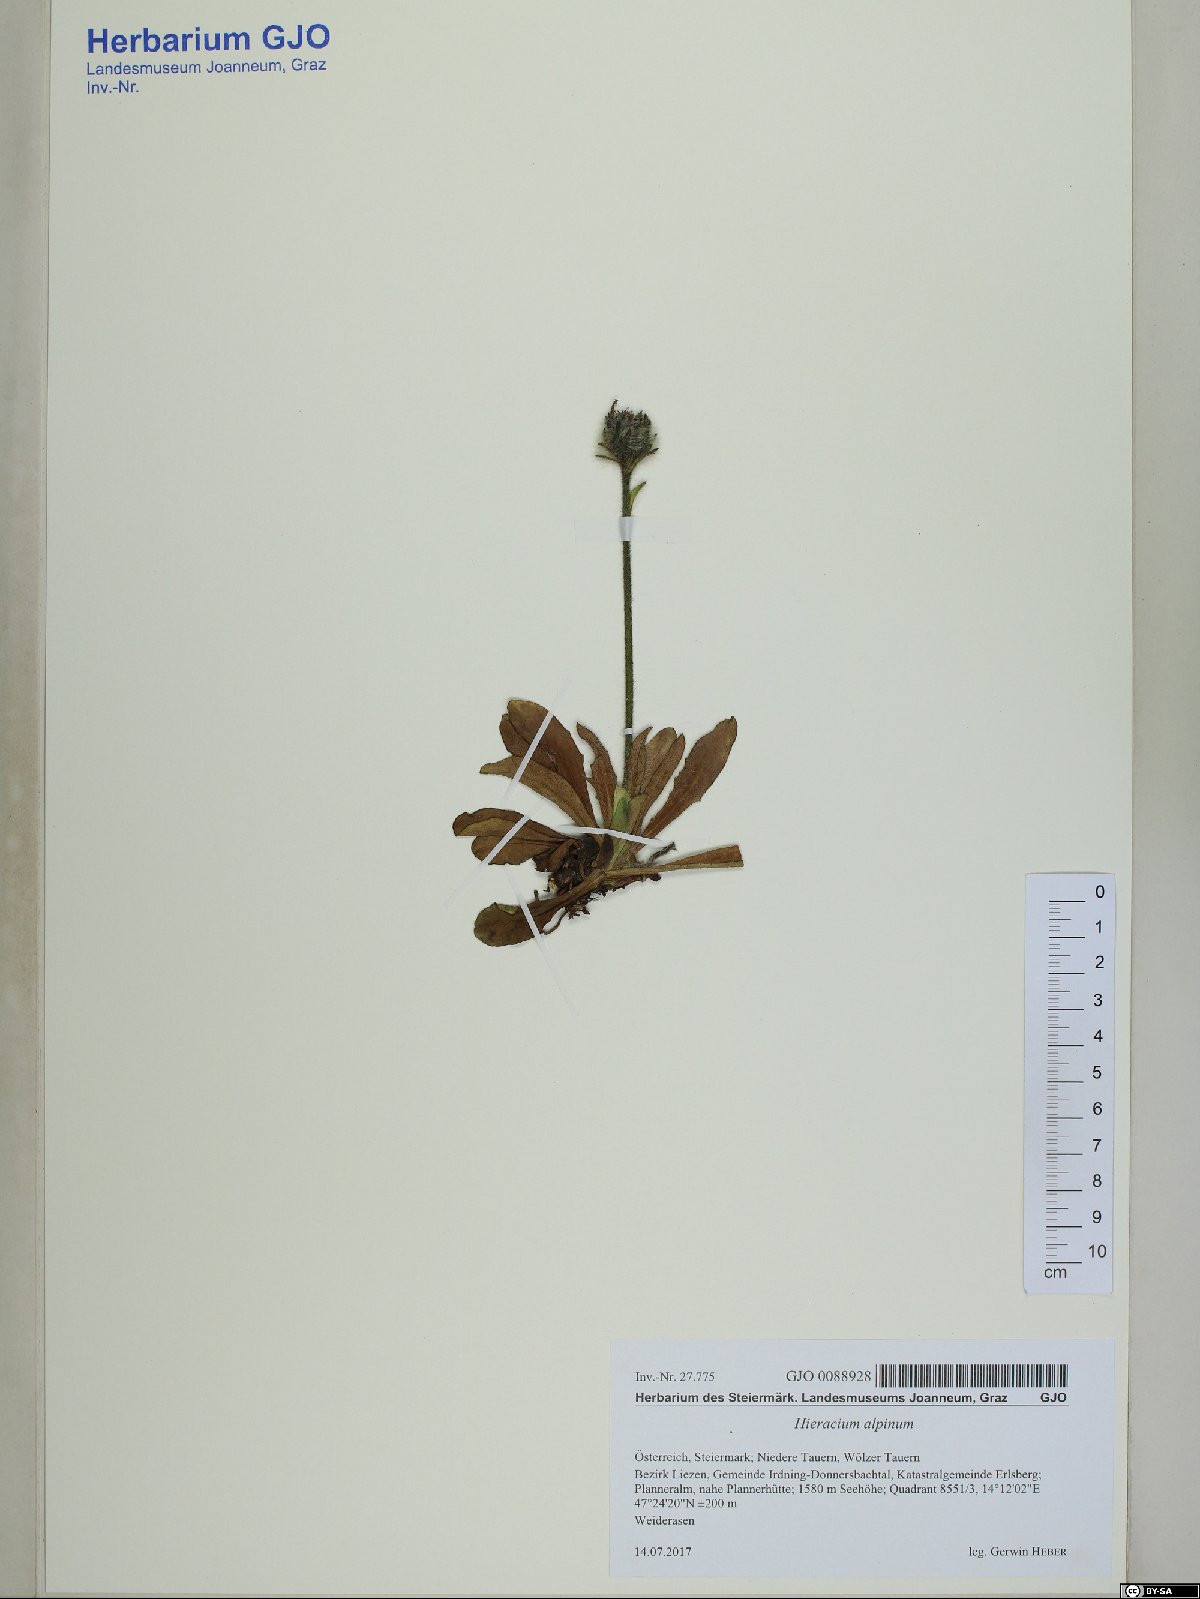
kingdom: Plantae
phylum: Tracheophyta
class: Magnoliopsida
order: Asterales
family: Asteraceae
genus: Hieracium
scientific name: Hieracium alpinum
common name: Alpine hawkweed
